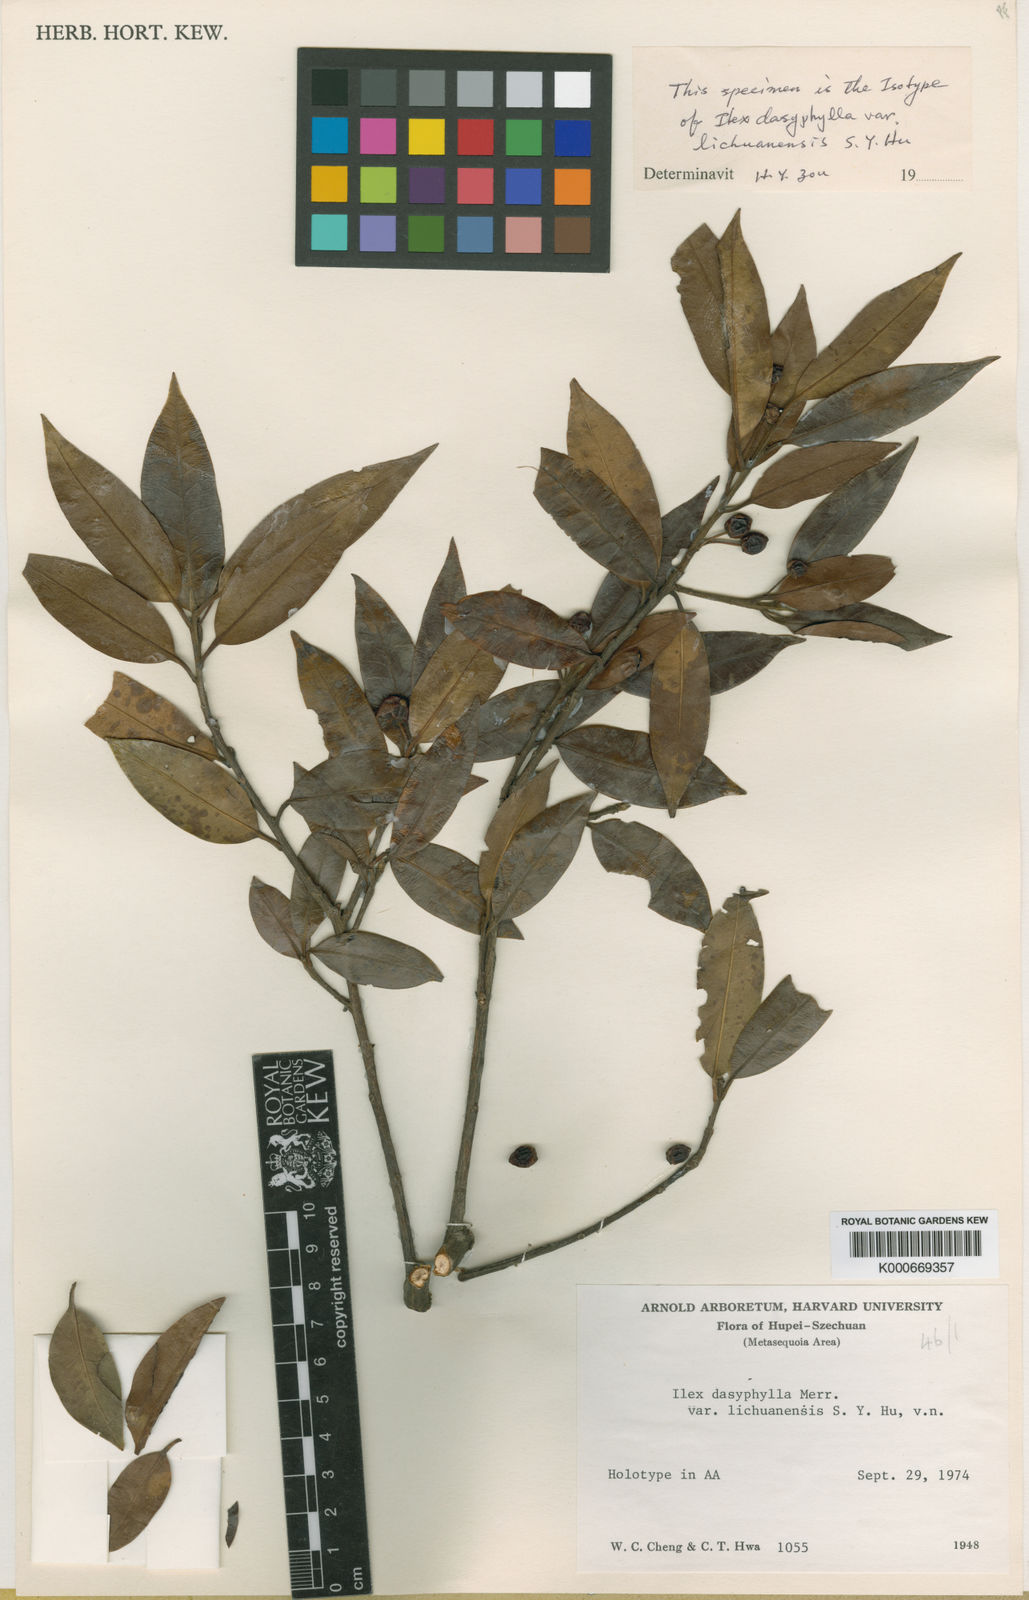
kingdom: Plantae
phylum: Tracheophyta
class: Magnoliopsida
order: Aquifoliales
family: Aquifoliaceae
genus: Ilex
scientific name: Ilex dasyphylla
